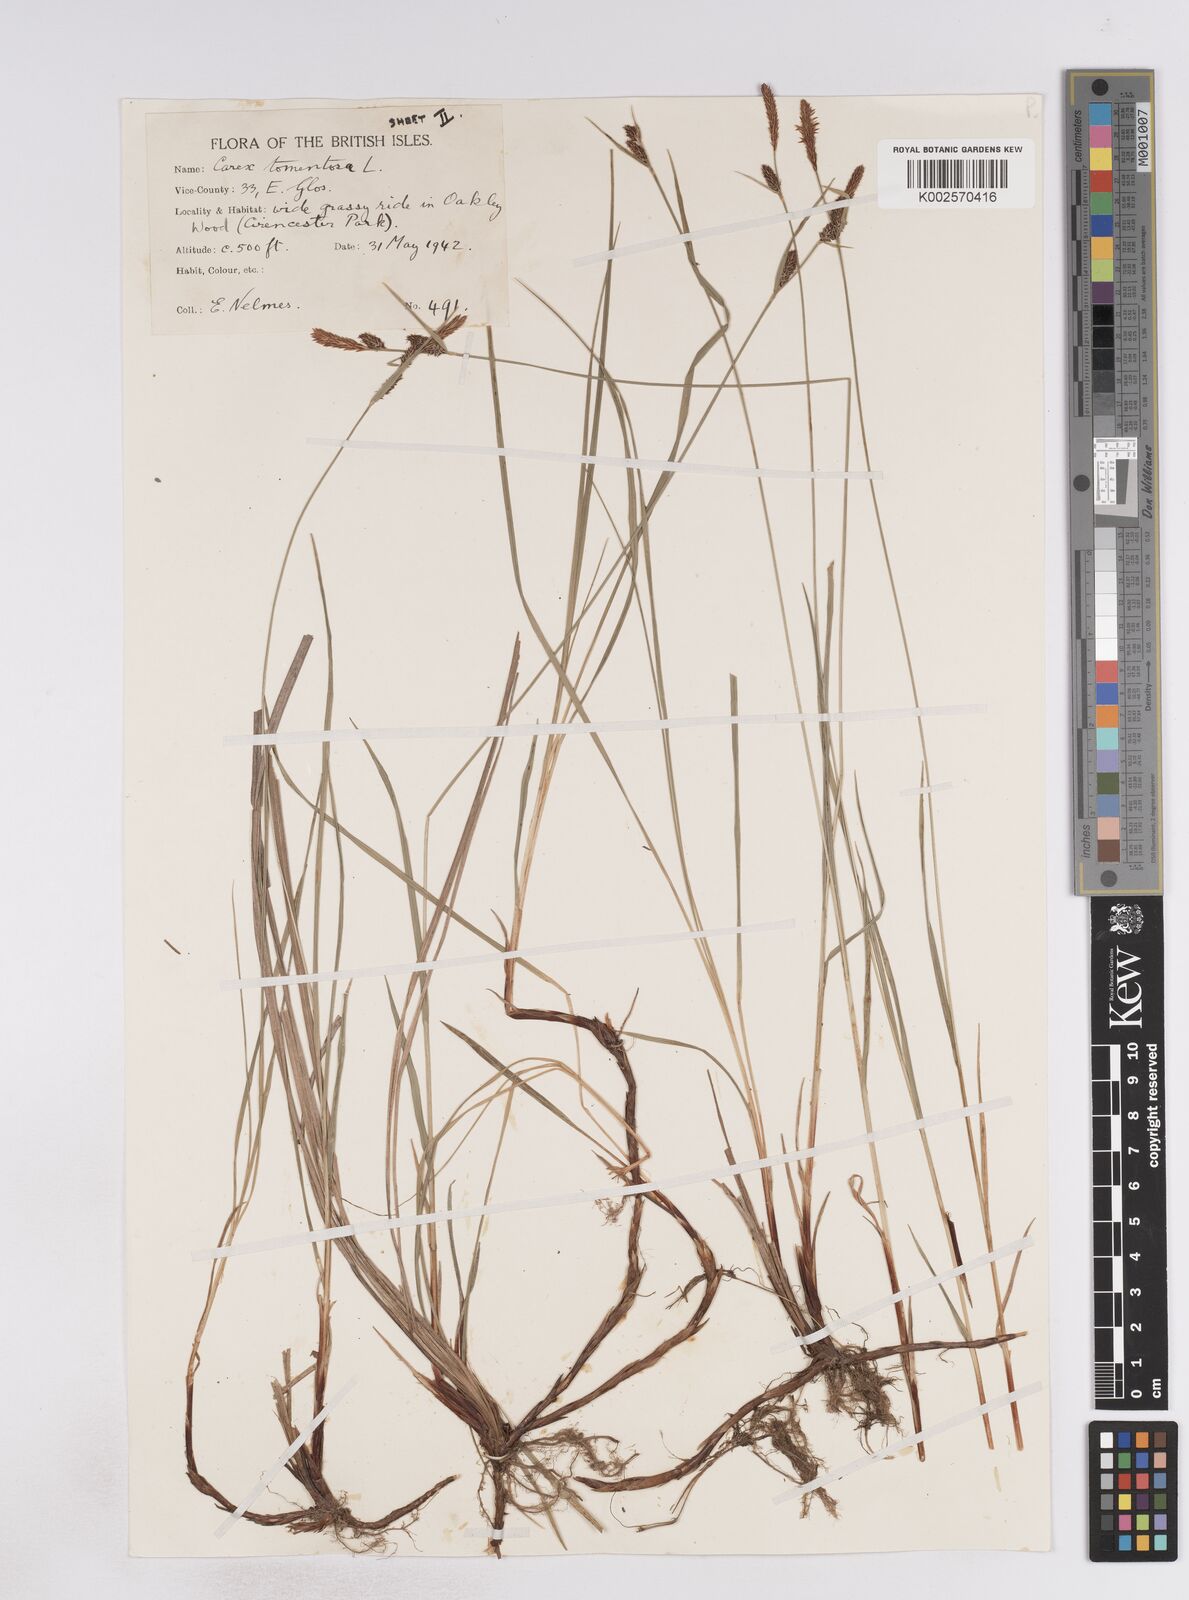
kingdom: Plantae
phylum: Tracheophyta
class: Liliopsida
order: Poales
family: Cyperaceae
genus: Carex
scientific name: Carex montana
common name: Soft-leaved sedge
